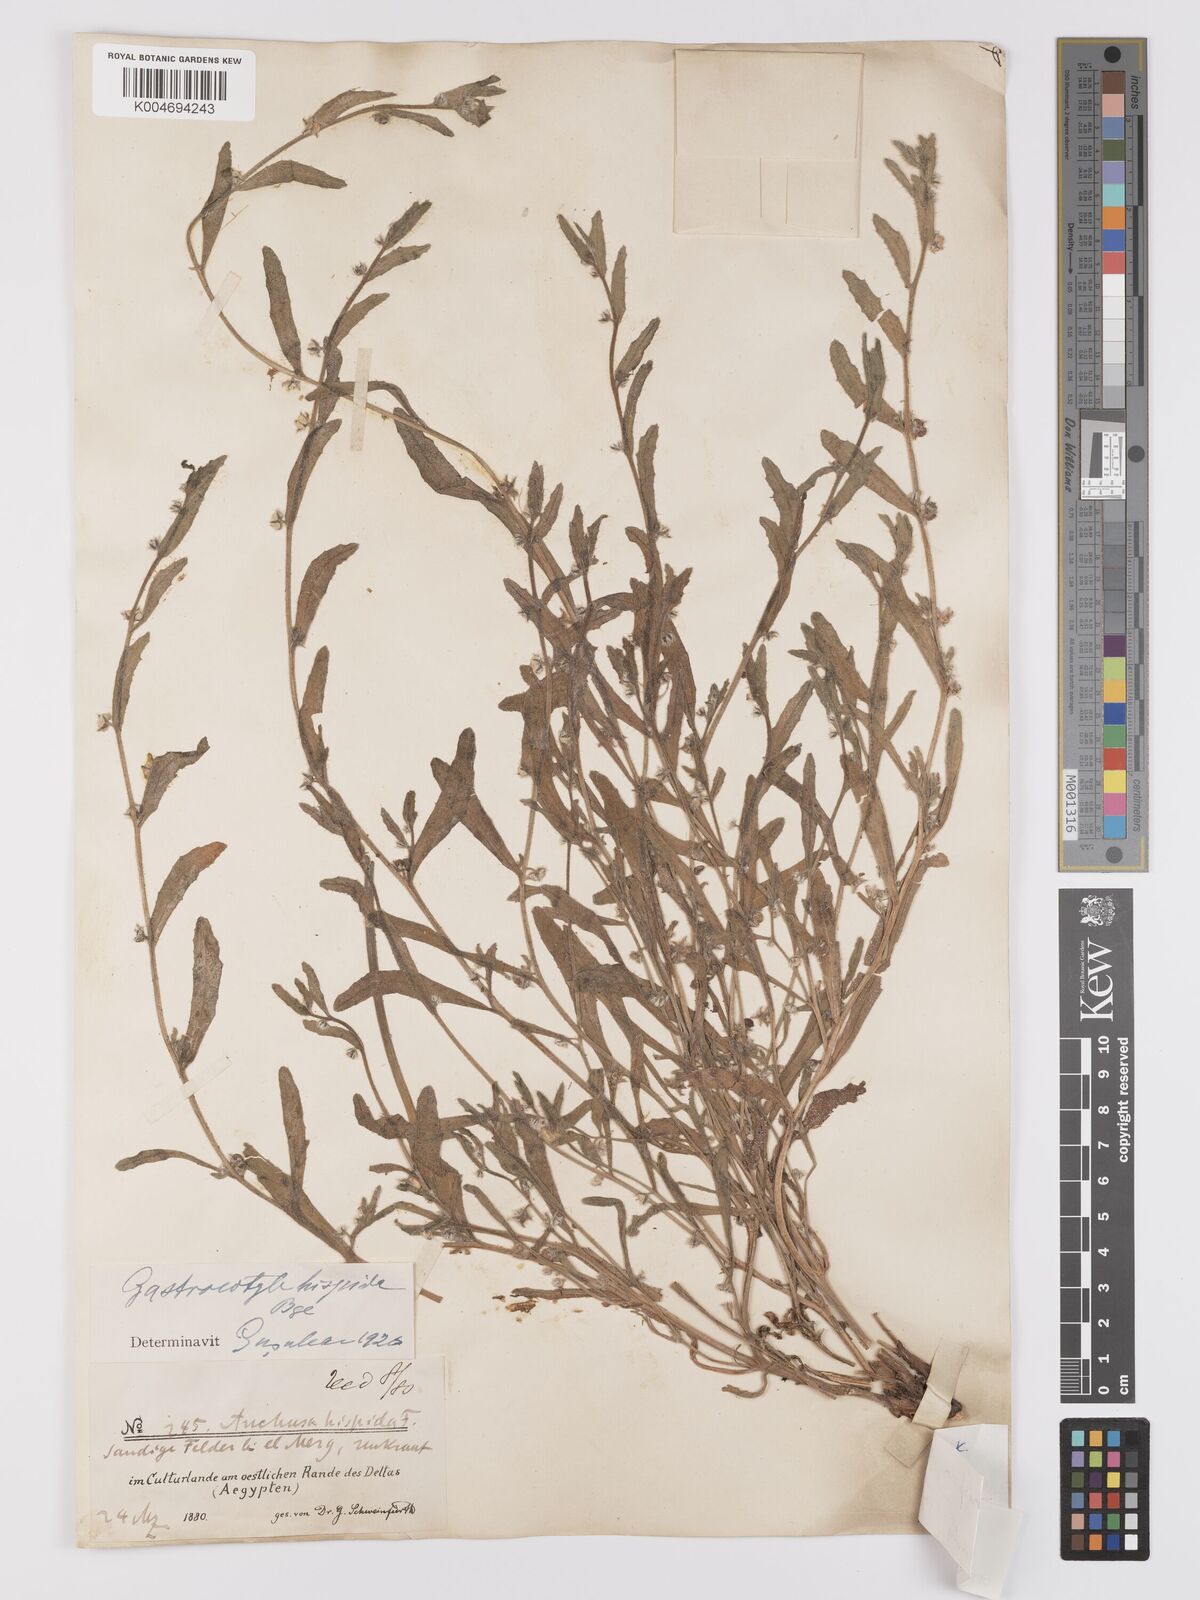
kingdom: Plantae
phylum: Tracheophyta
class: Magnoliopsida
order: Boraginales
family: Boraginaceae
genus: Gastrocotyle
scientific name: Gastrocotyle hispida
